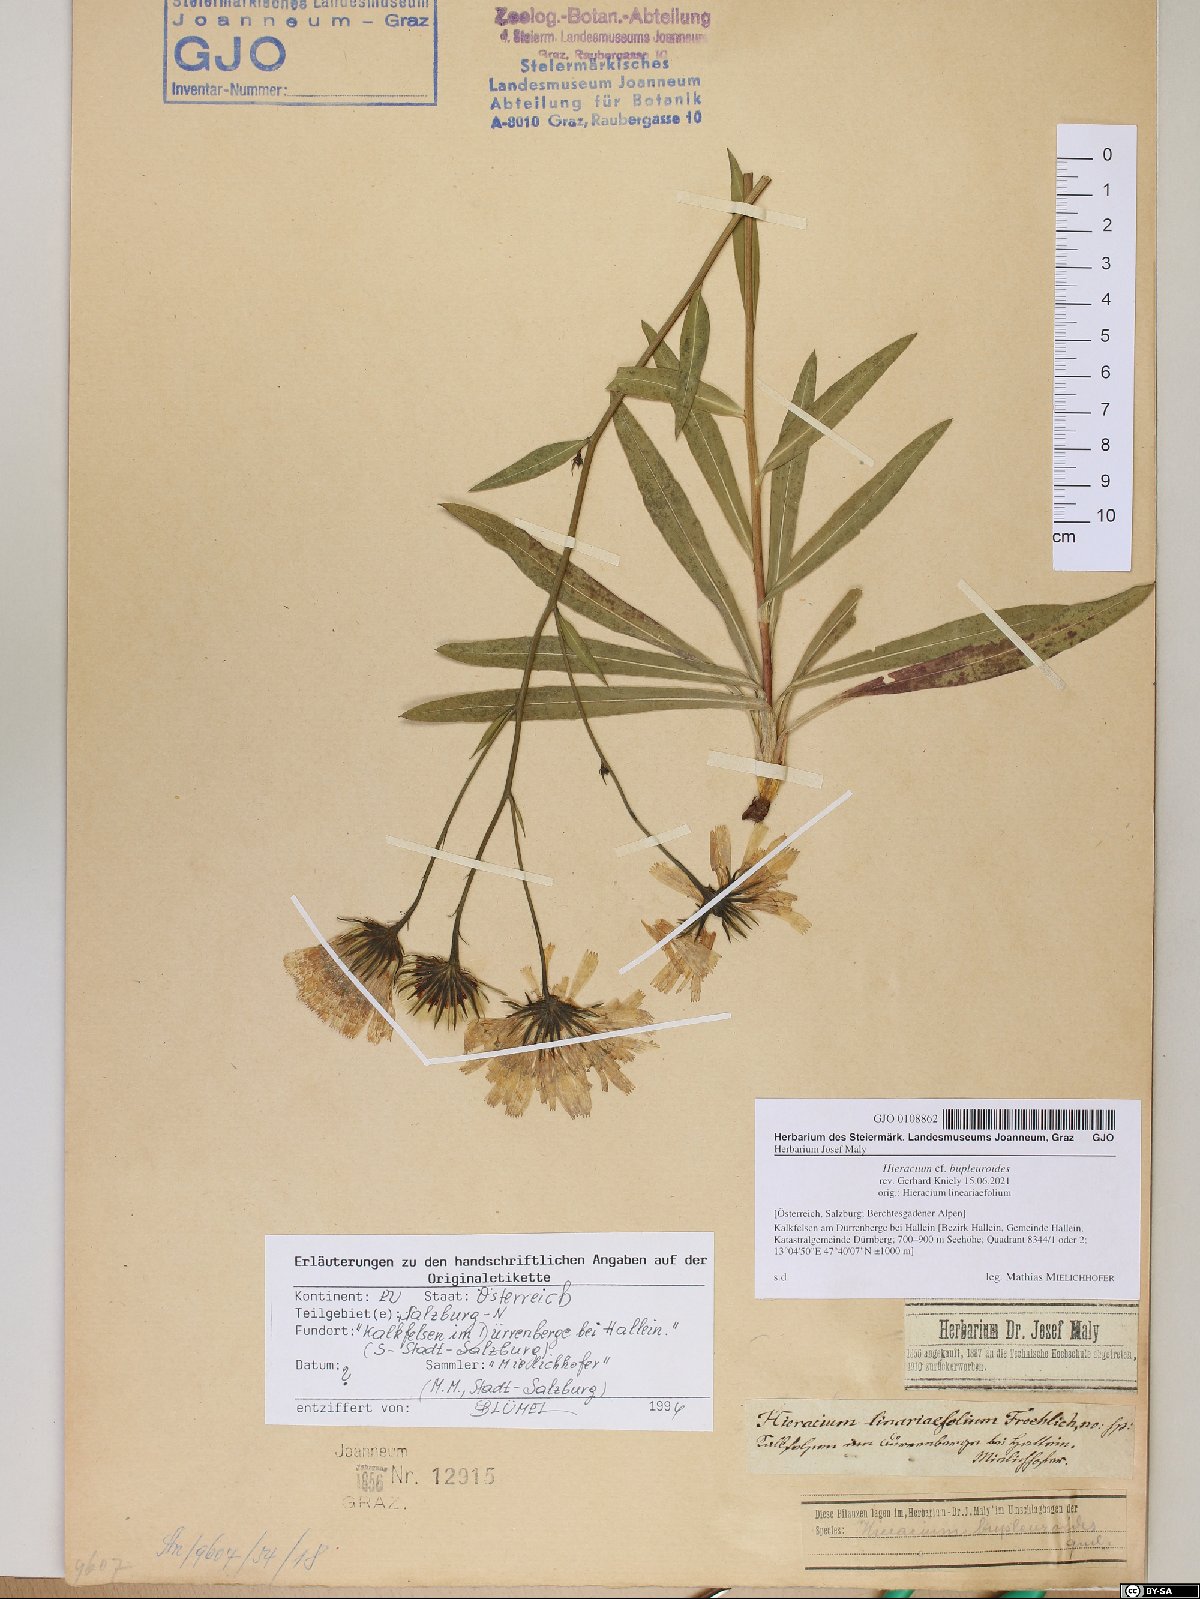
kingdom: Plantae
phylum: Tracheophyta
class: Magnoliopsida
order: Asterales
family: Asteraceae
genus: Hieracium
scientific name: Hieracium bupleuroides
